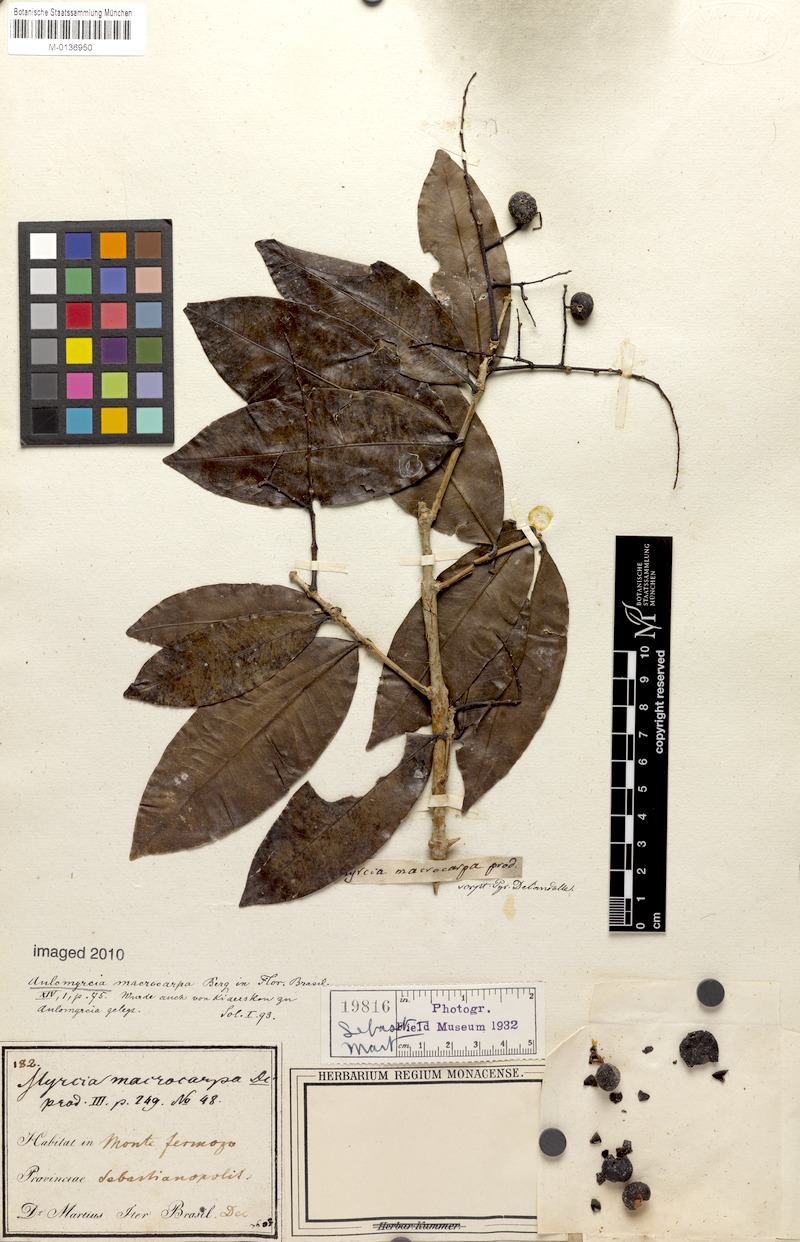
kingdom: Plantae
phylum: Tracheophyta
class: Magnoliopsida
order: Myrtales
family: Myrtaceae
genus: Myrcia
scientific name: Myrcia macrocarpa
